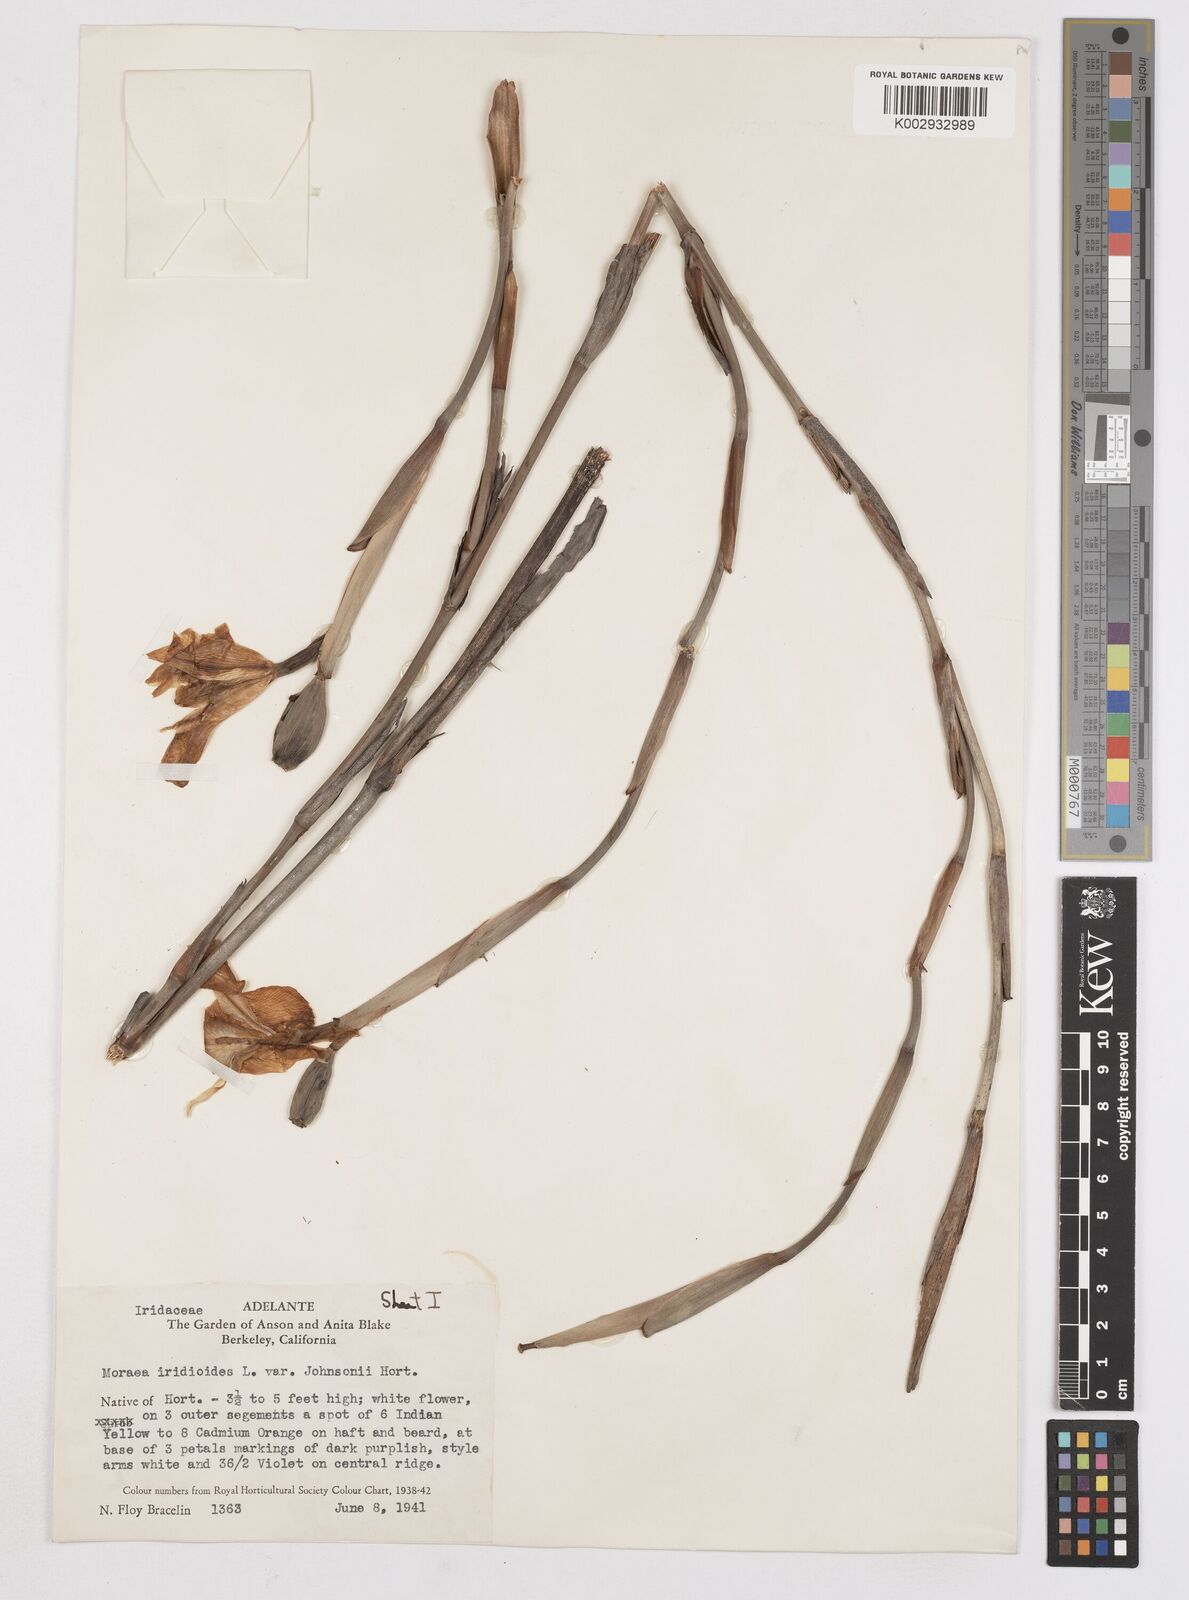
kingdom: Plantae
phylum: Tracheophyta
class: Liliopsida
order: Asparagales
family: Iridaceae
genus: Dietes
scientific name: Dietes iridioides
